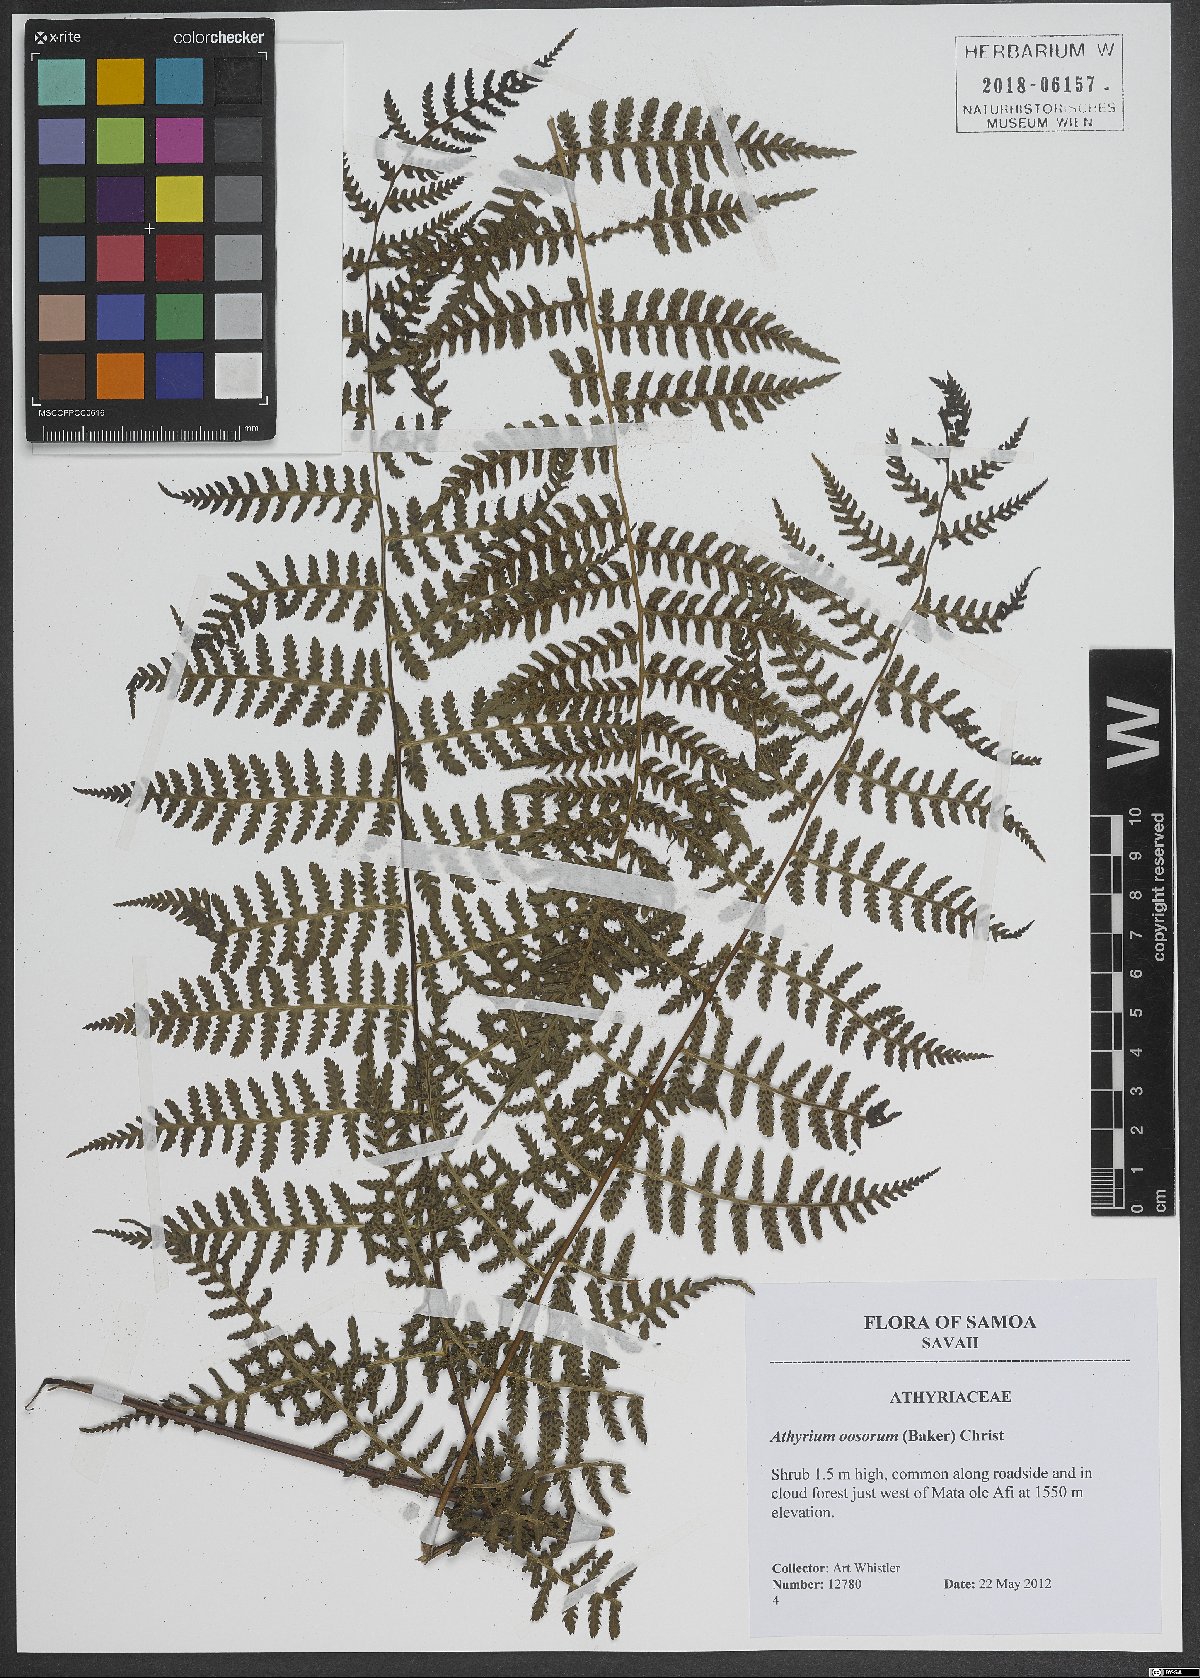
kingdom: Plantae
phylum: Tracheophyta
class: Polypodiopsida
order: Polypodiales
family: Athyriaceae
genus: Athyrium
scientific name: Athyrium oosorum
